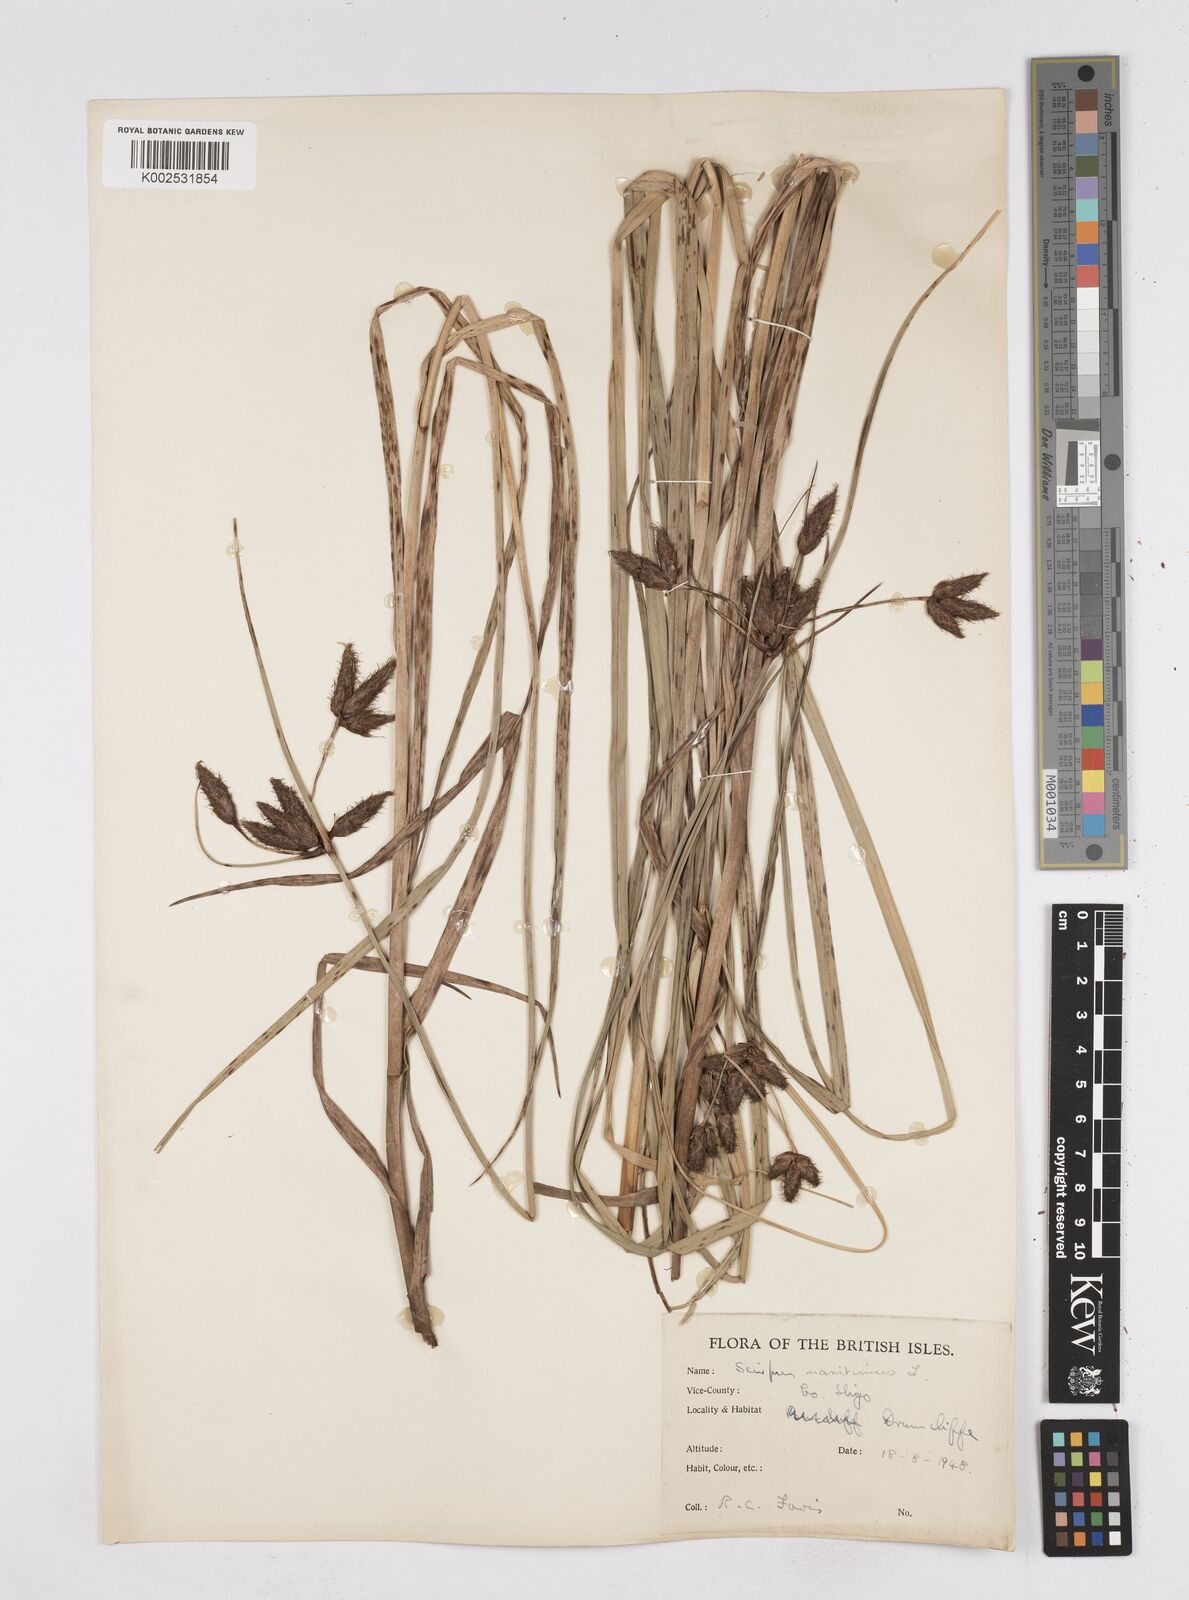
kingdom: Plantae
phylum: Tracheophyta
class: Liliopsida
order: Poales
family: Cyperaceae
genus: Bolboschoenus
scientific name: Bolboschoenus maritimus
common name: Sea club-rush
